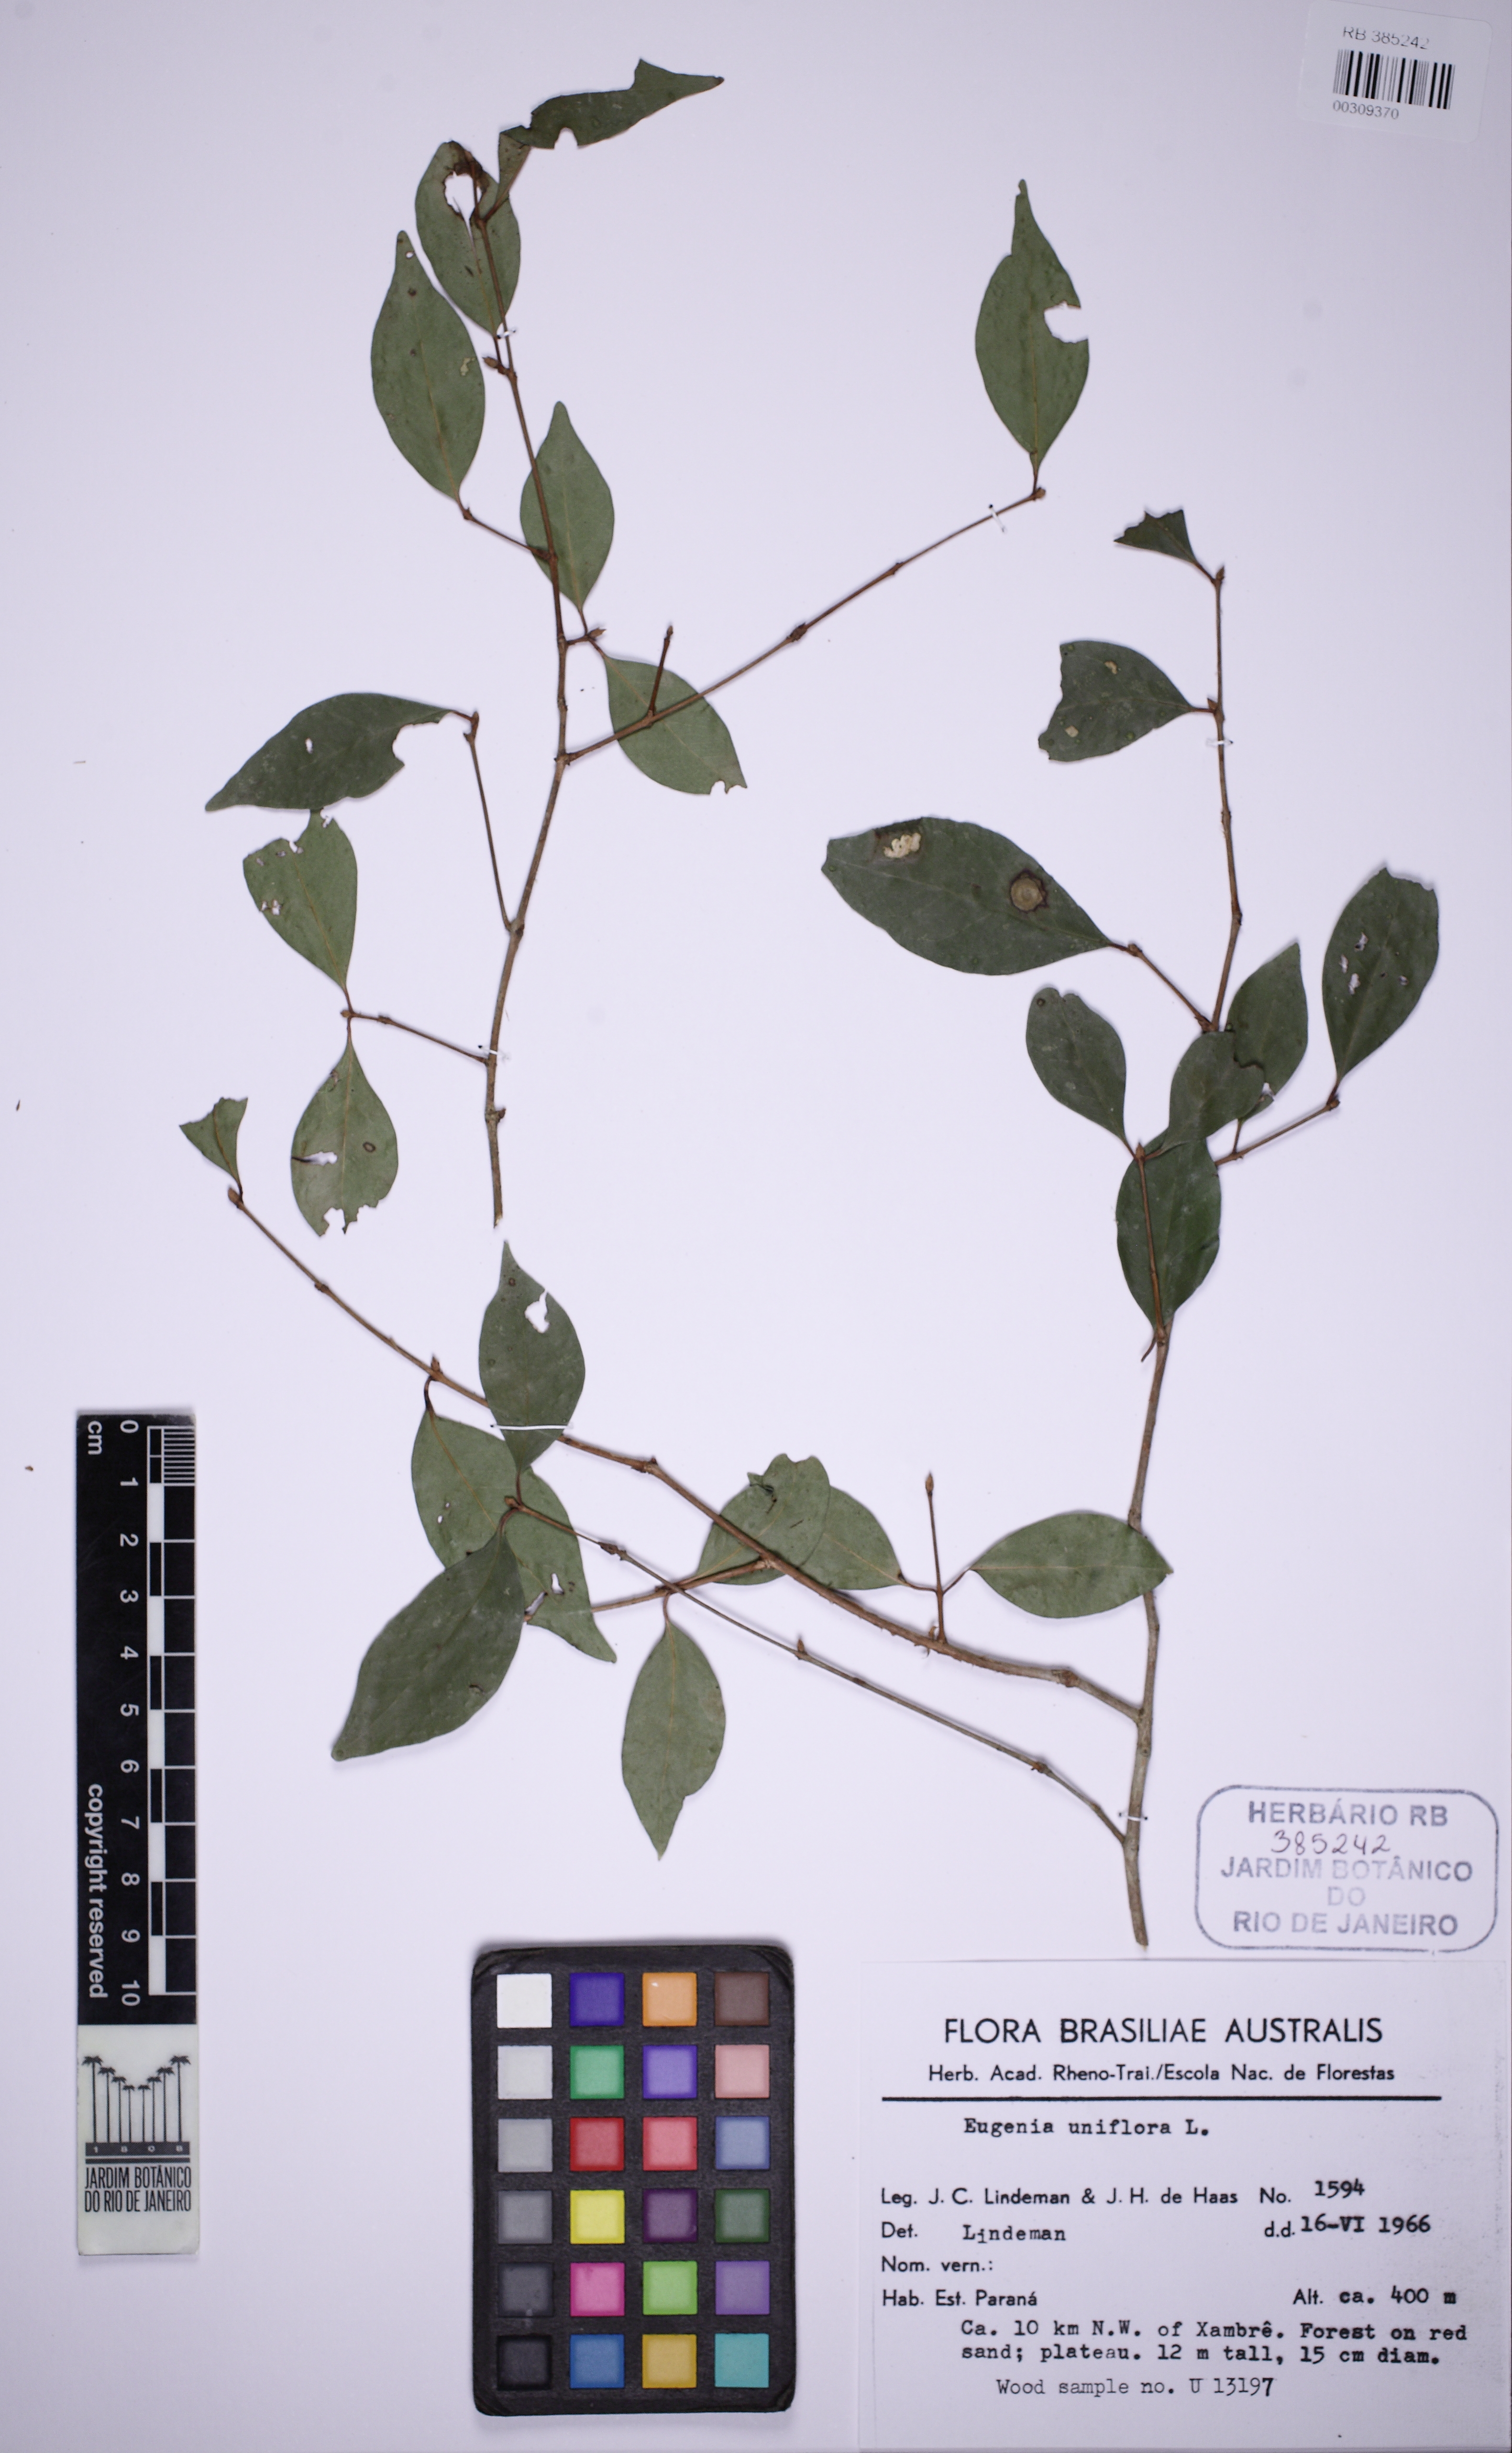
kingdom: Plantae
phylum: Tracheophyta
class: Magnoliopsida
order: Myrtales
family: Myrtaceae
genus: Eugenia
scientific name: Eugenia uniflora
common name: Surinam cherry
